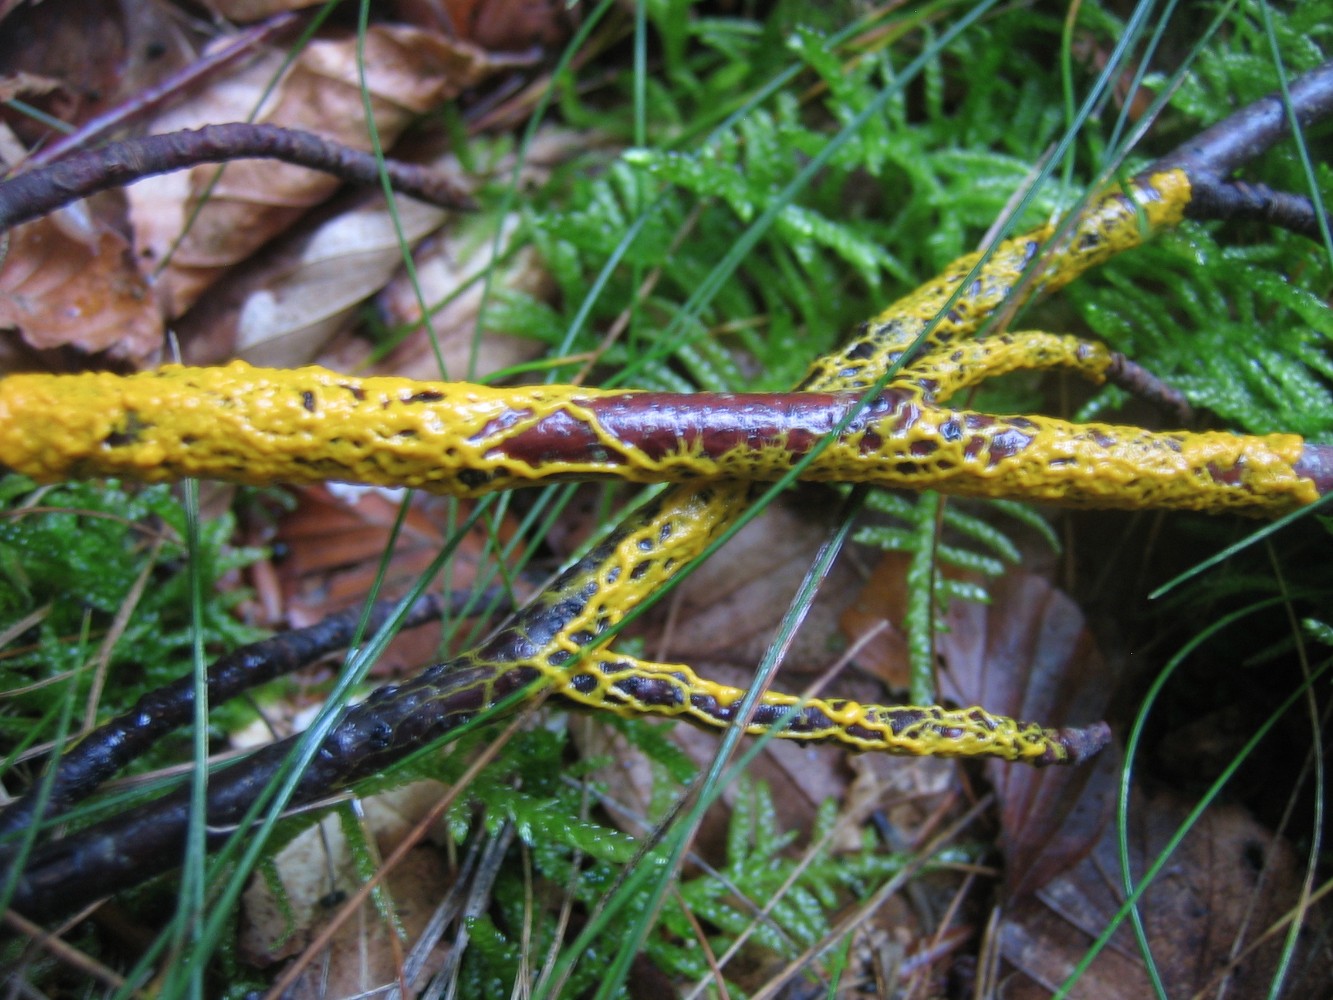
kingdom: Protozoa
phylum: Mycetozoa
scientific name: Mycetozoa
